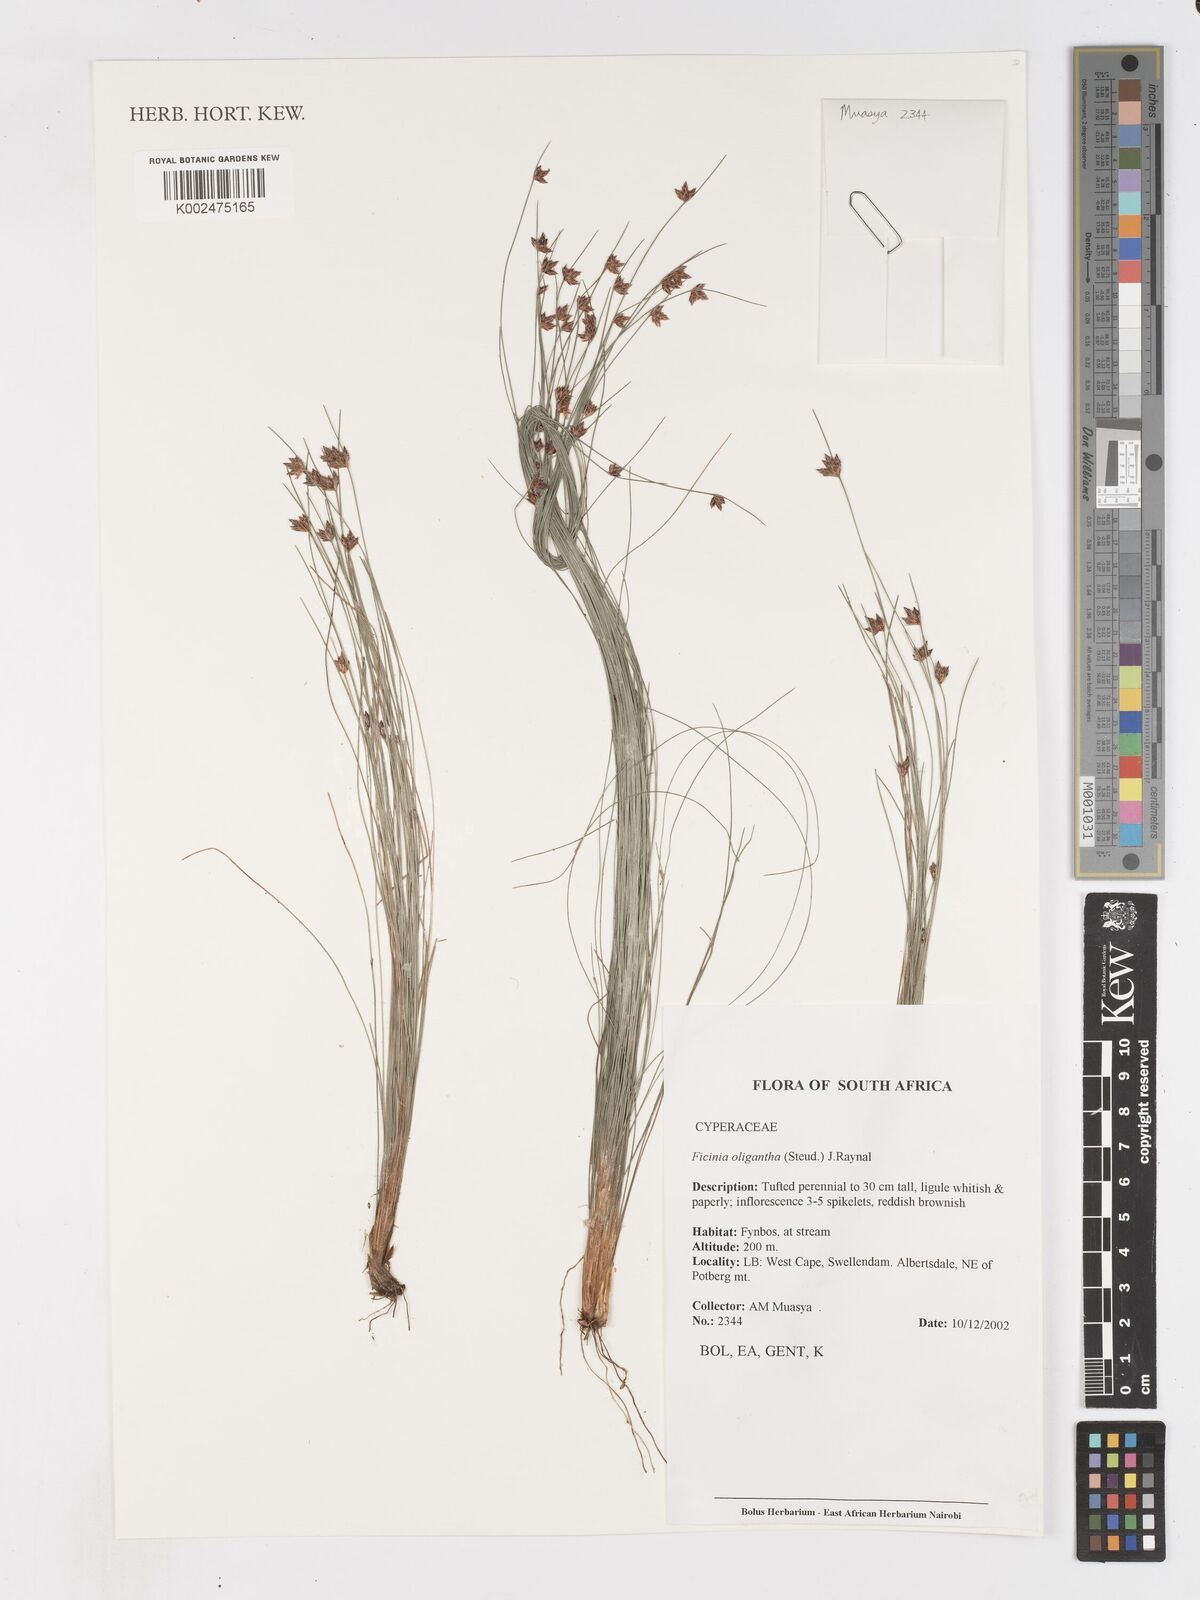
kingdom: Plantae
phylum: Tracheophyta
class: Liliopsida
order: Poales
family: Cyperaceae
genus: Ficinia
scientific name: Ficinia stolonifera
